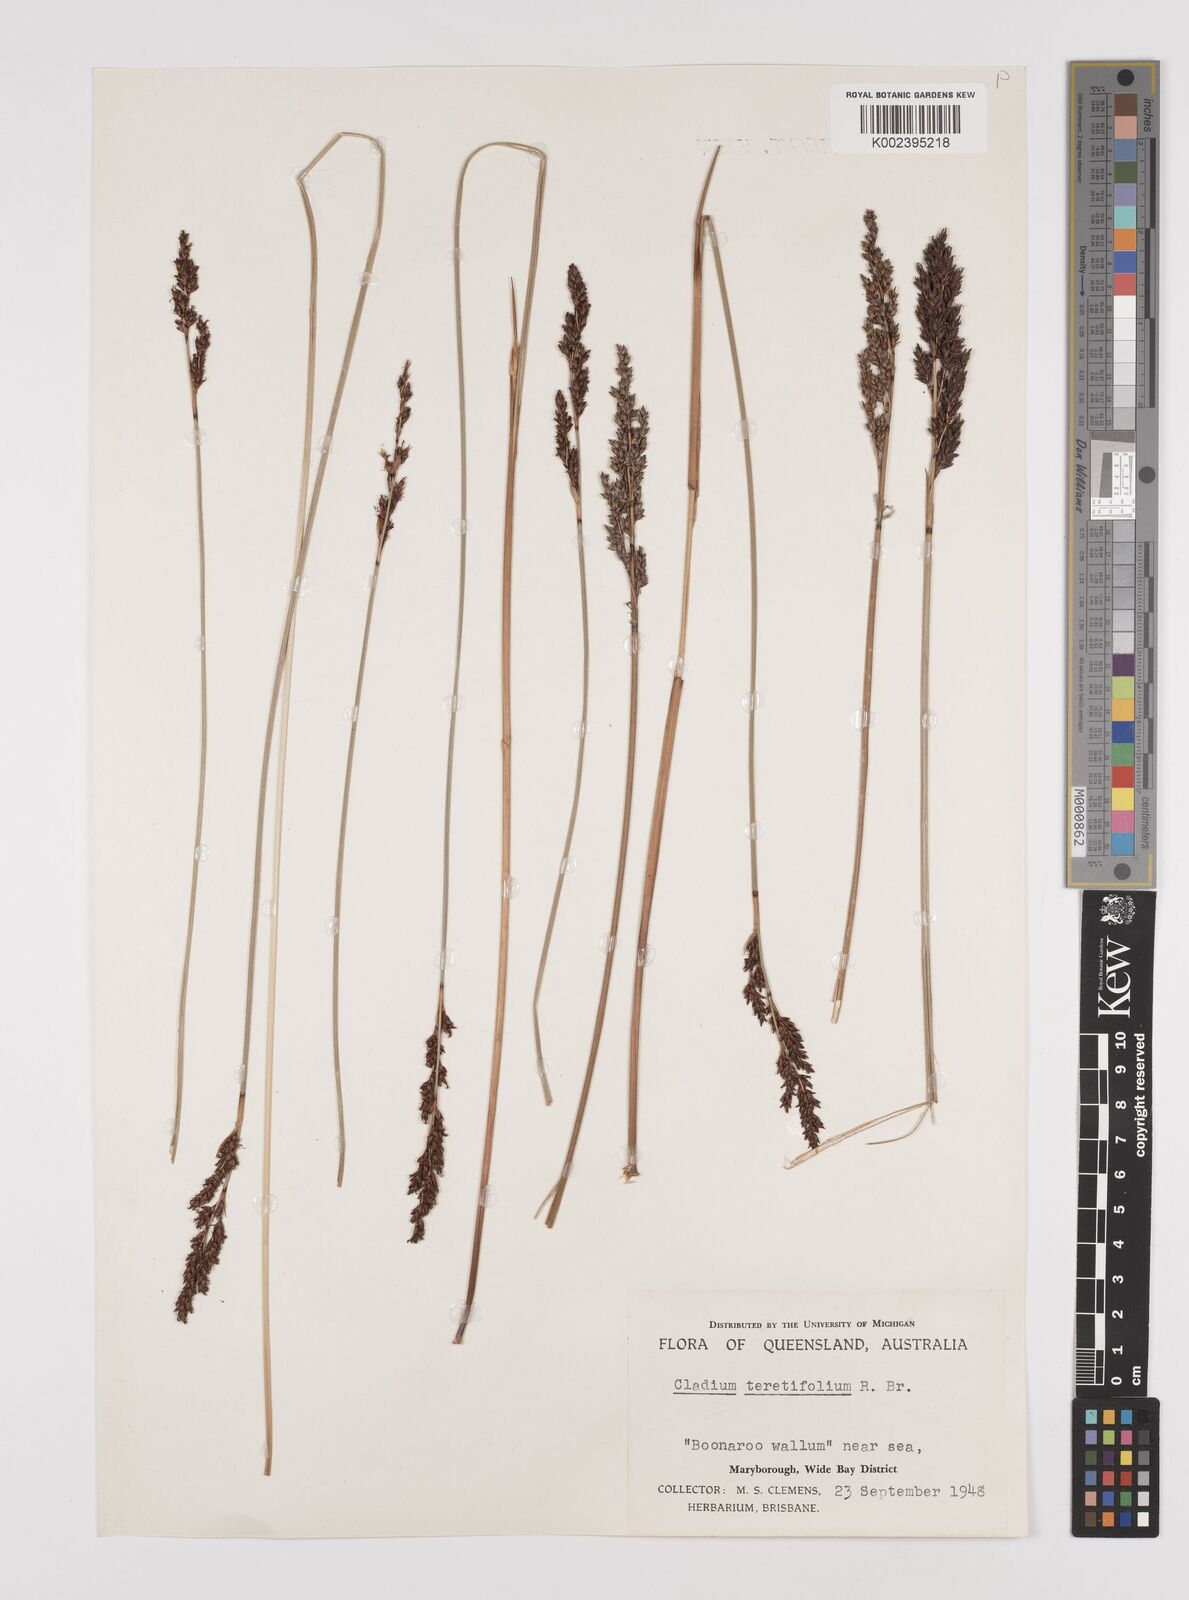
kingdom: Plantae
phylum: Tracheophyta
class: Liliopsida
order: Poales
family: Cyperaceae
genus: Machaerina
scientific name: Machaerina teretifolia
